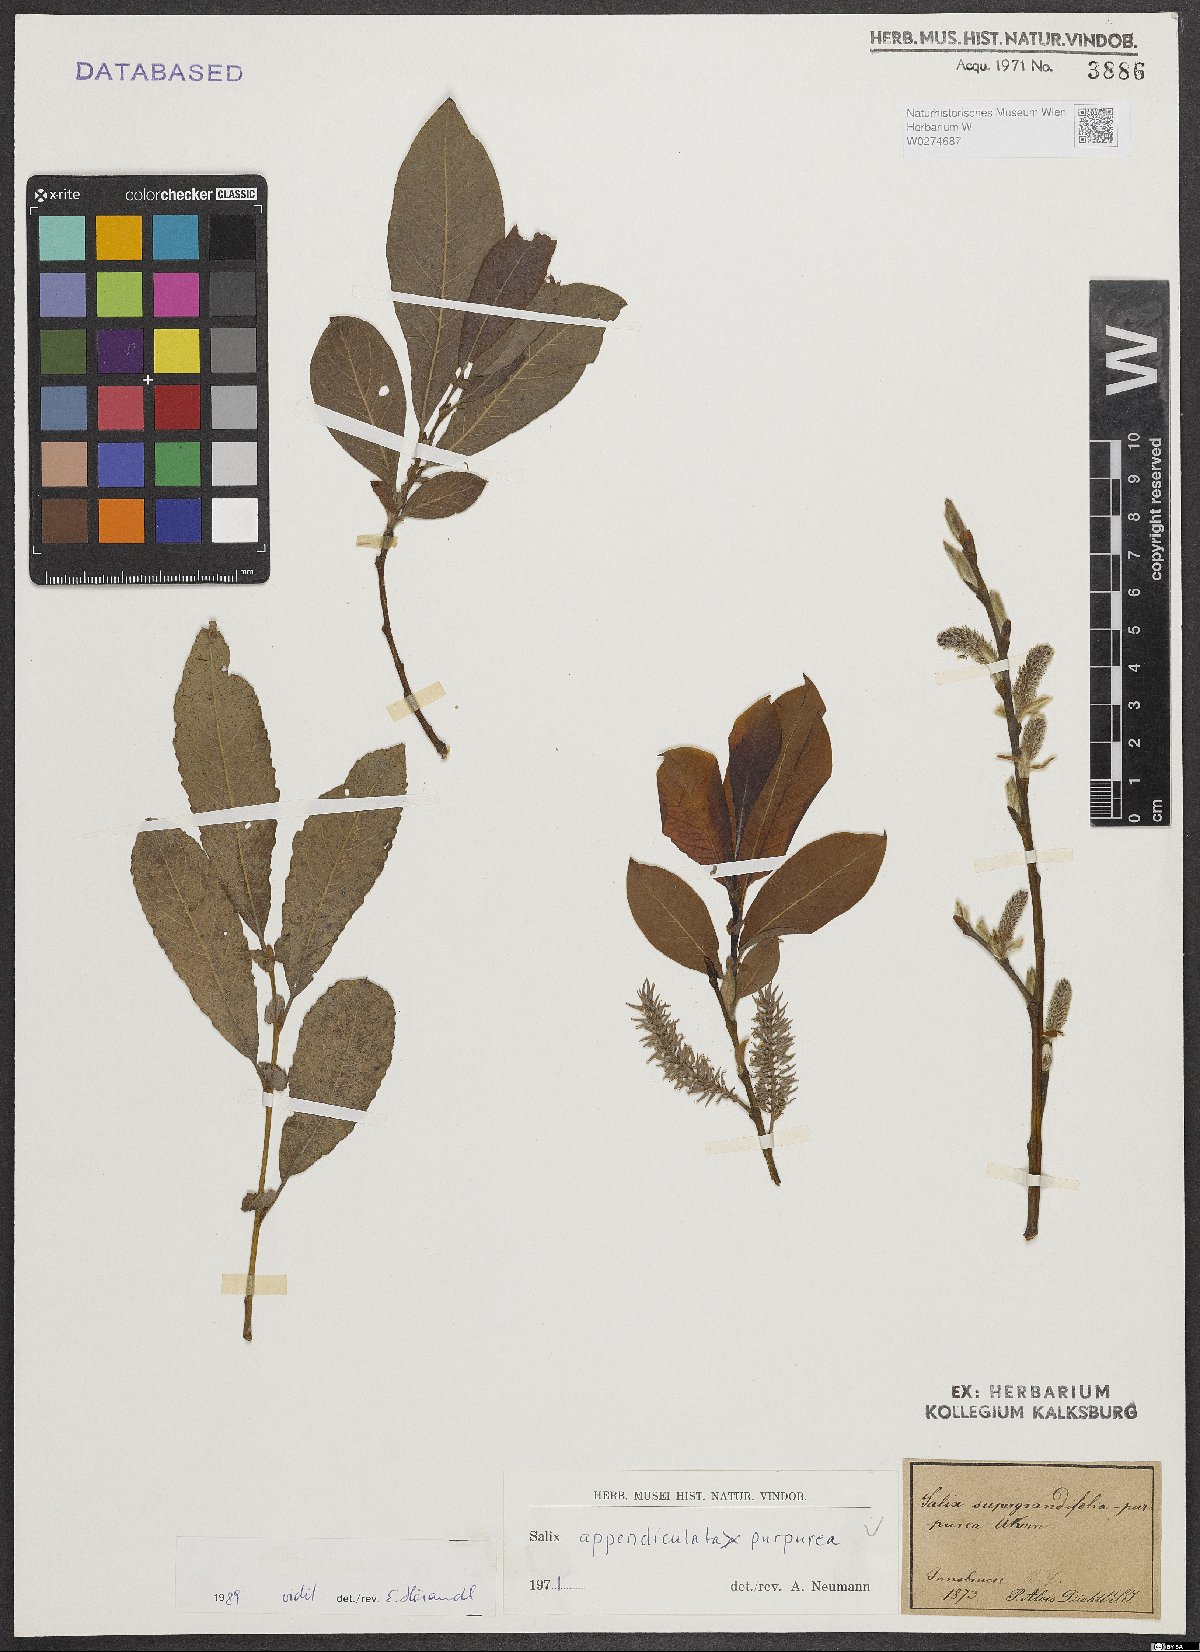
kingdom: Plantae
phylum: Tracheophyta
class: Magnoliopsida
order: Malpighiales
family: Salicaceae
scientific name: Salicaceae
